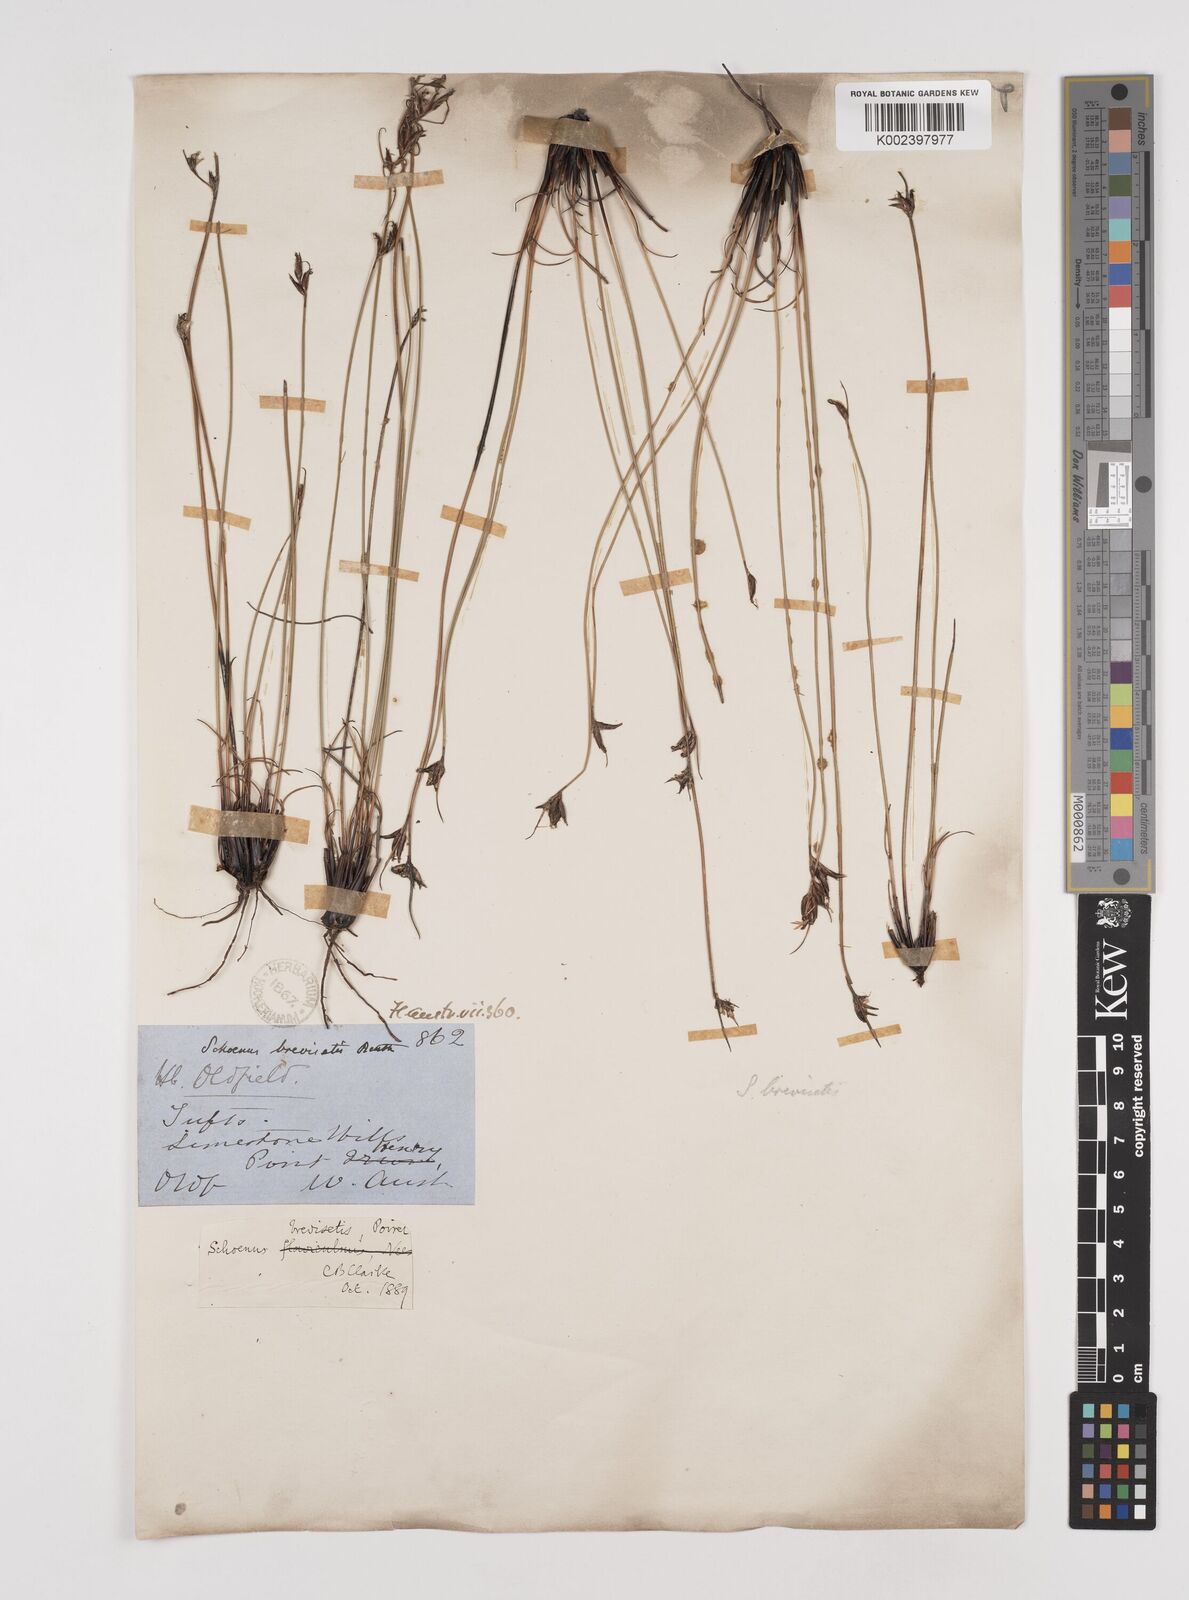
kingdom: Plantae
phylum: Tracheophyta
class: Liliopsida
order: Poales
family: Cyperaceae
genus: Schoenus
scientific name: Schoenus brevisetis
